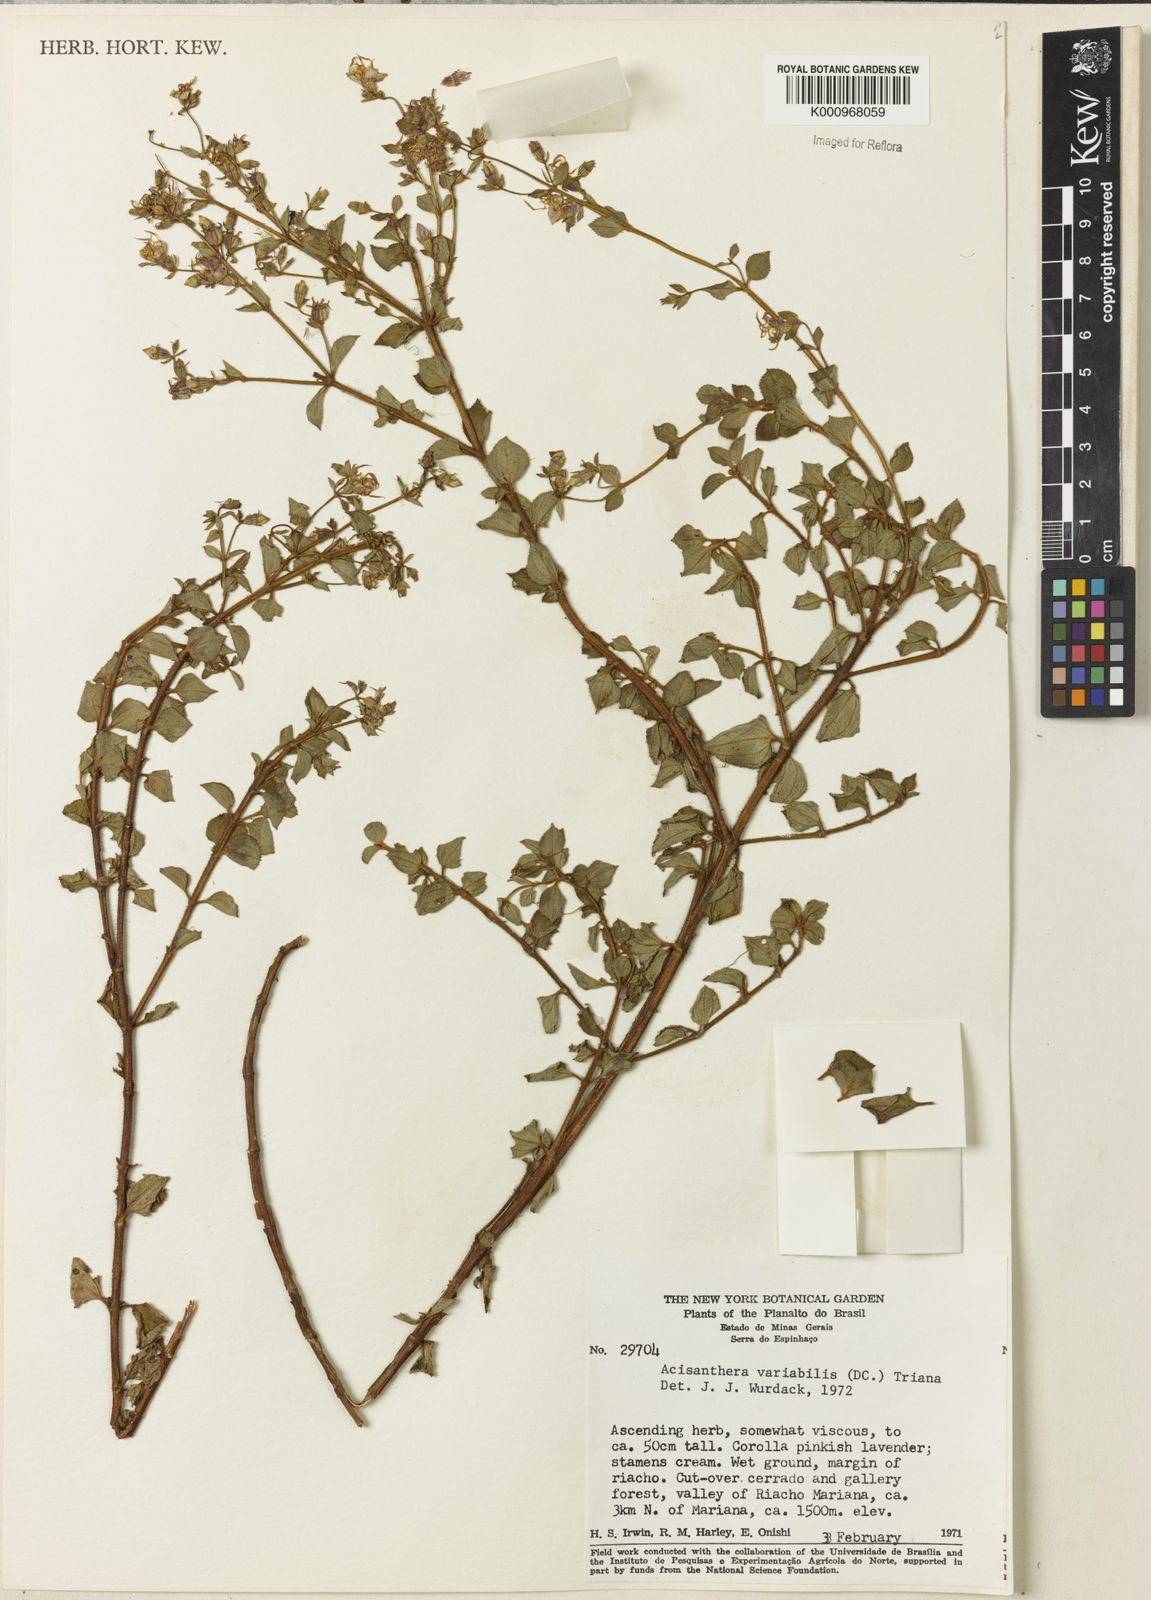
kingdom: Plantae
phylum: Tracheophyta
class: Magnoliopsida
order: Myrtales
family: Melastomataceae
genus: Acisanthera
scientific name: Acisanthera variabilis
